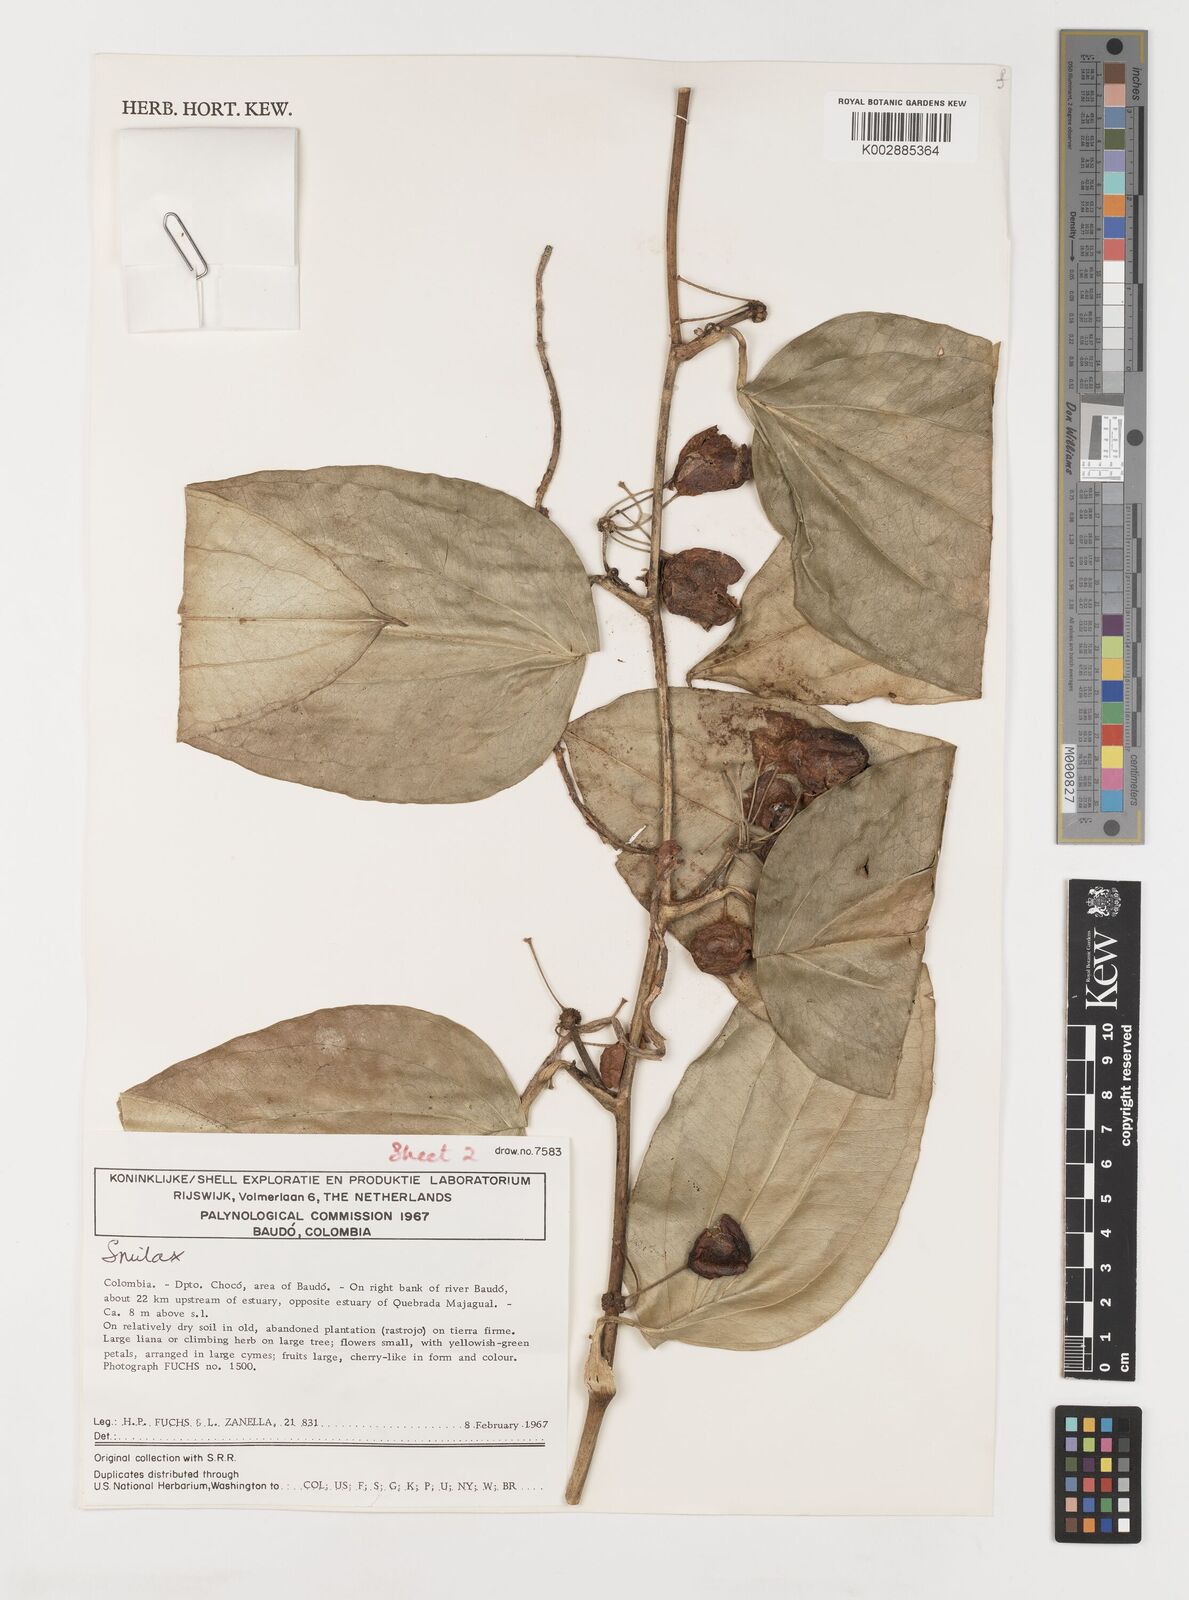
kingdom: Plantae
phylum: Tracheophyta
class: Liliopsida
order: Liliales
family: Smilacaceae
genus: Smilax
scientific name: Smilax
